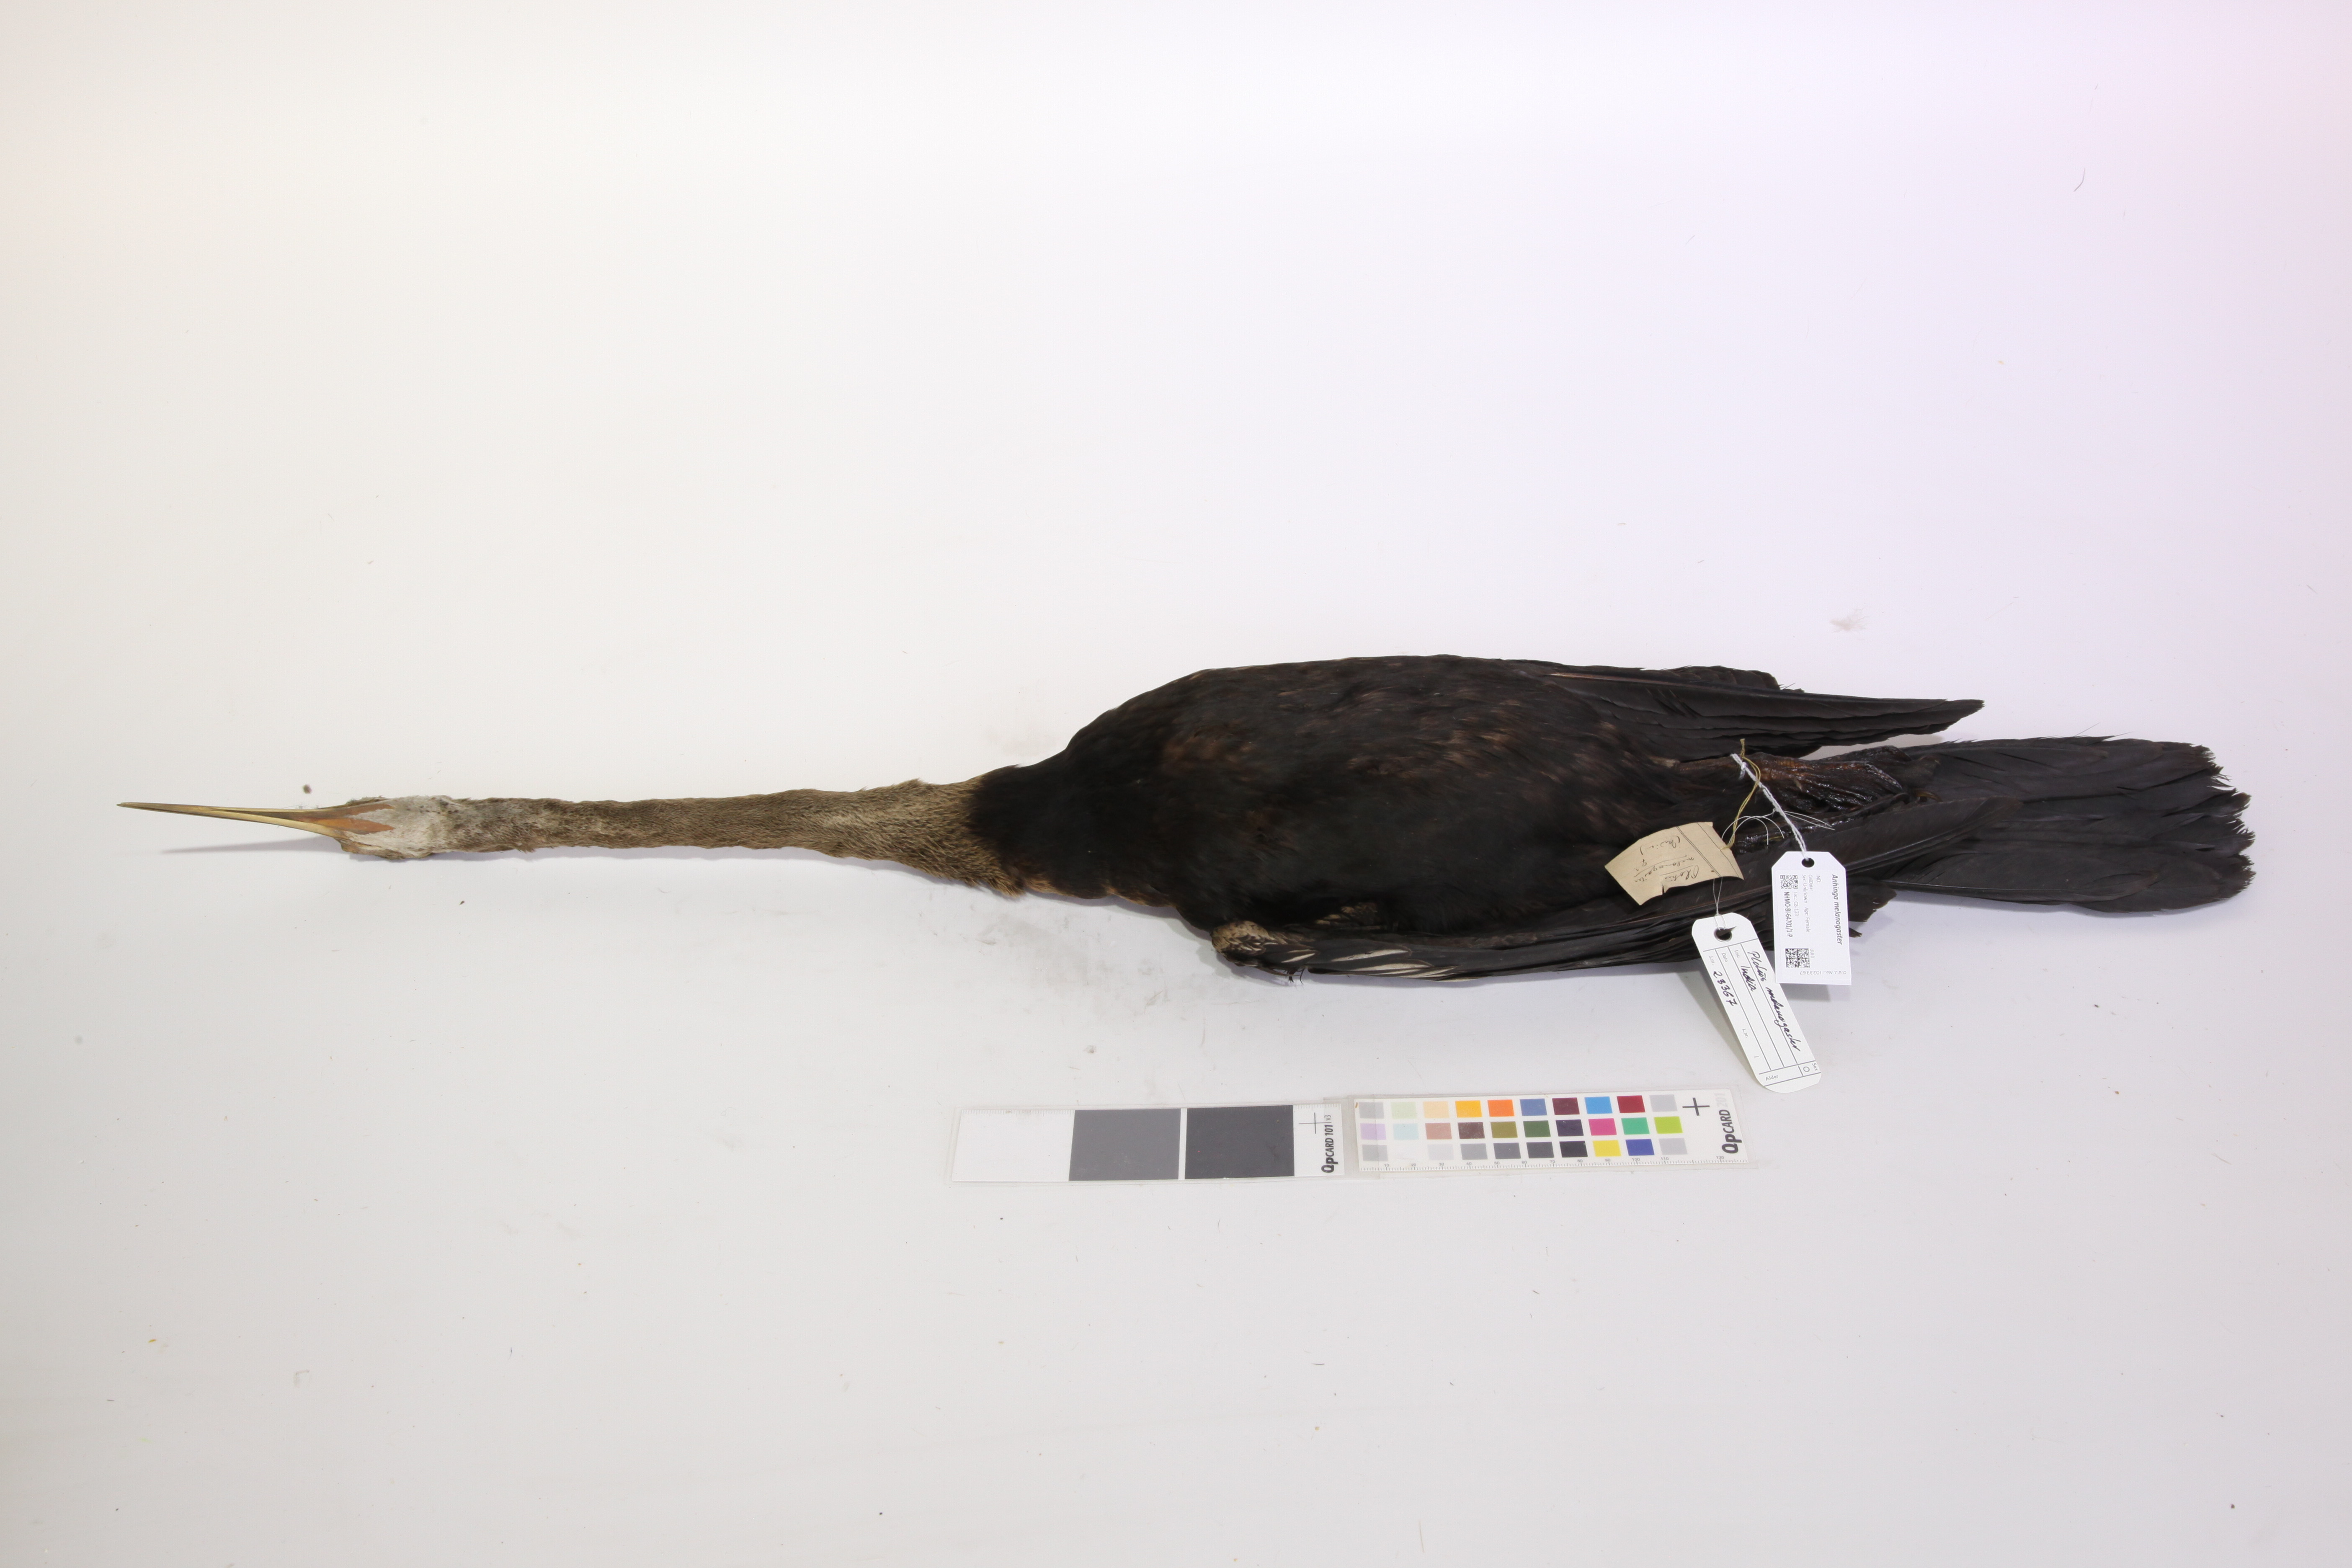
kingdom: Animalia
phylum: Chordata
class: Aves
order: Suliformes
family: Anhingidae
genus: Anhinga
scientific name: Anhinga melanogaster
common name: Oriental darter
